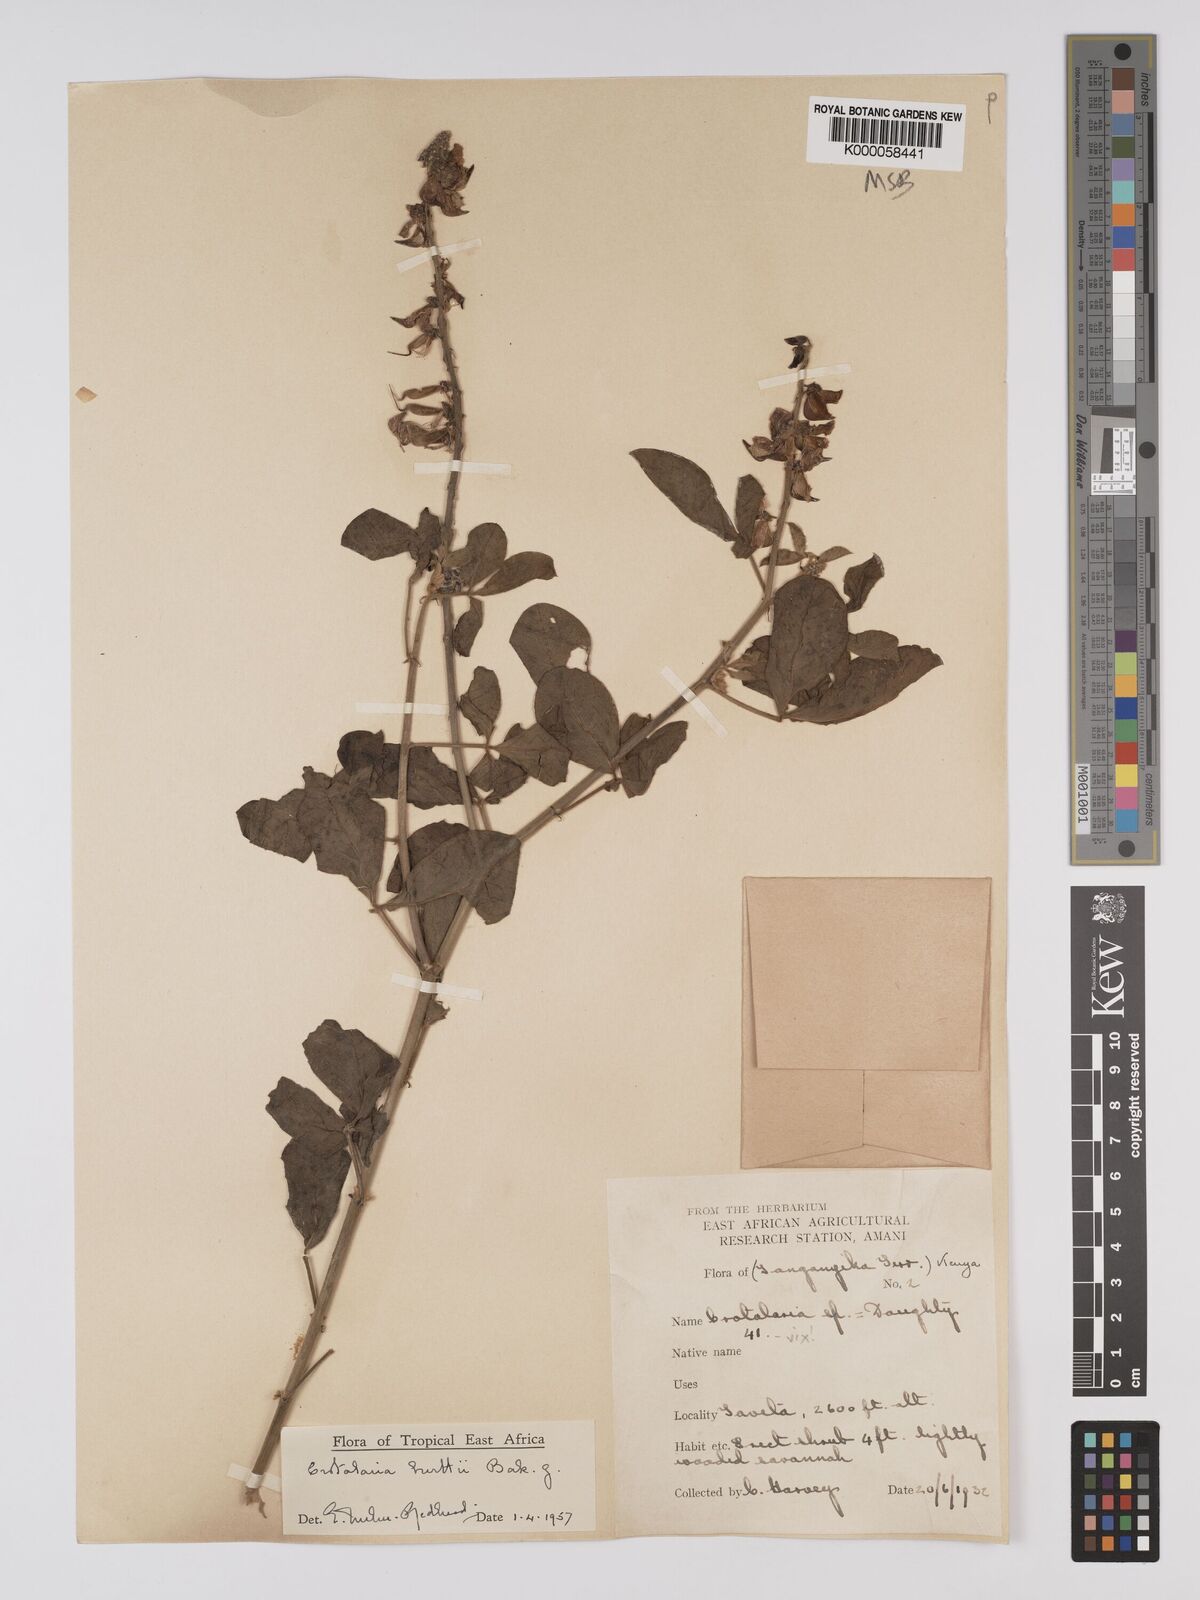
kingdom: Plantae
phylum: Tracheophyta
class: Magnoliopsida
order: Fabales
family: Fabaceae
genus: Crotalaria
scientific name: Crotalaria burttii
